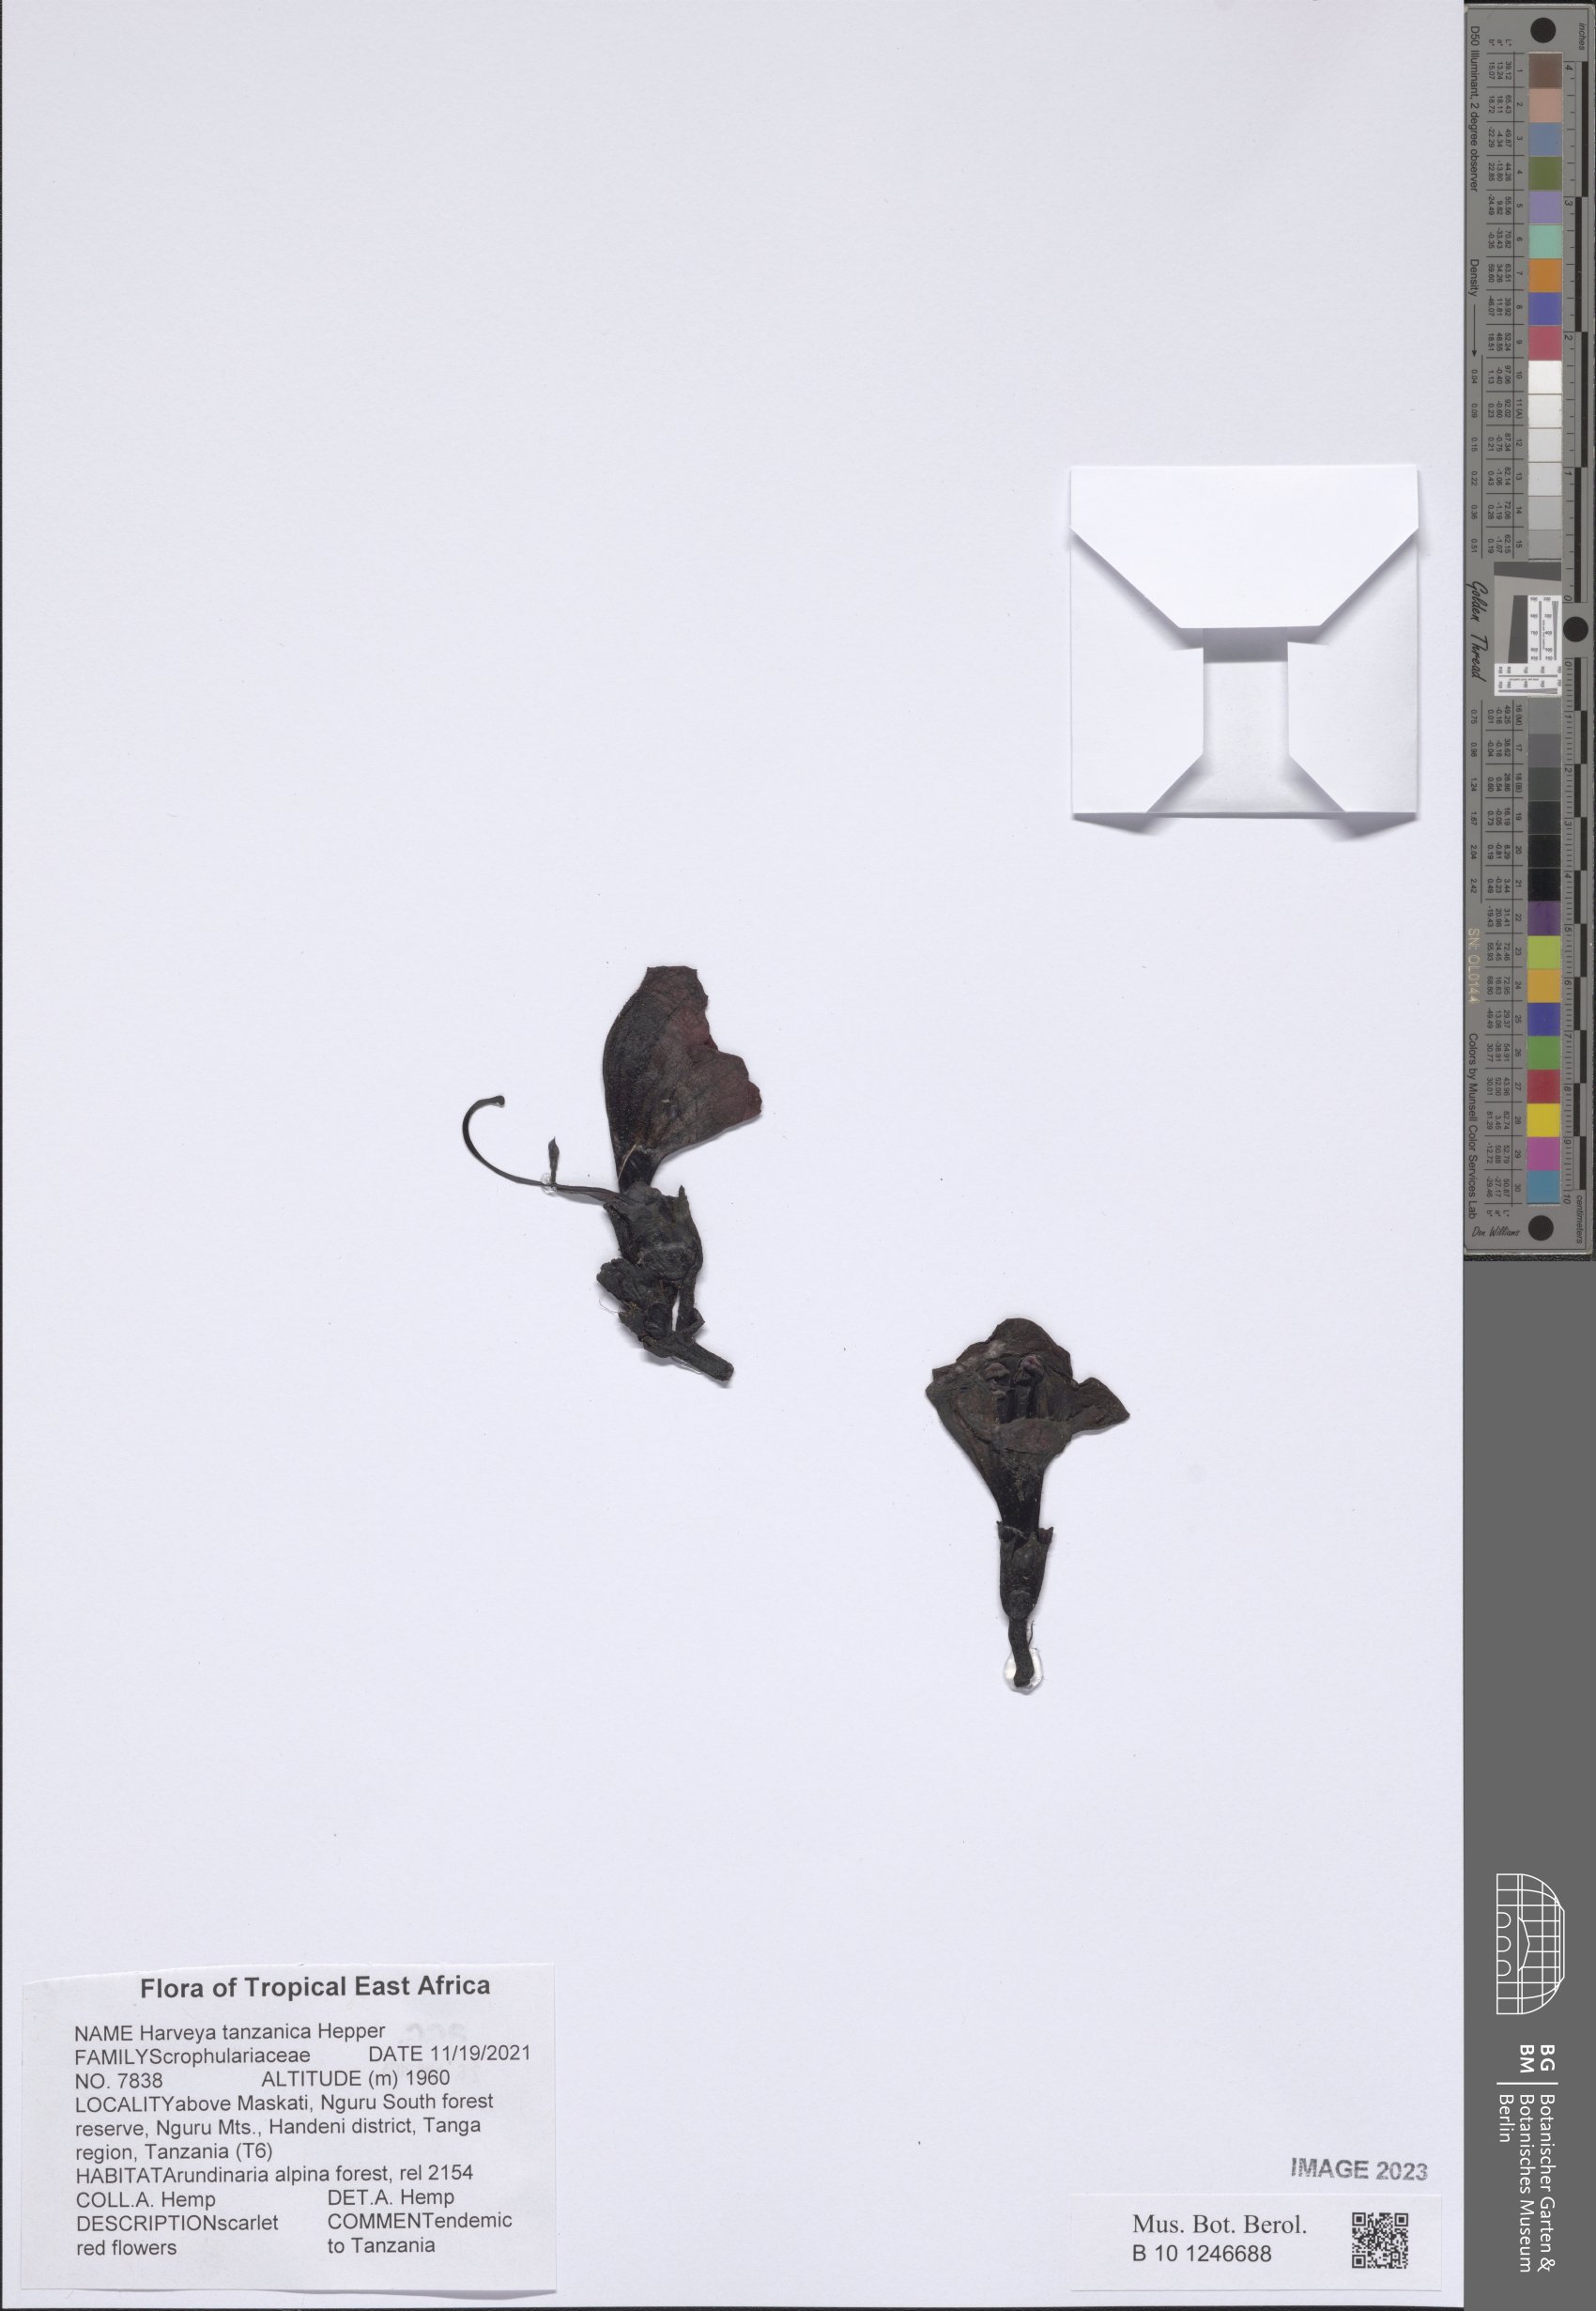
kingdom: Plantae
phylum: Tracheophyta
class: Magnoliopsida
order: Lamiales
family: Orobanchaceae
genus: Harveya
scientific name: Harveya tanzanica
